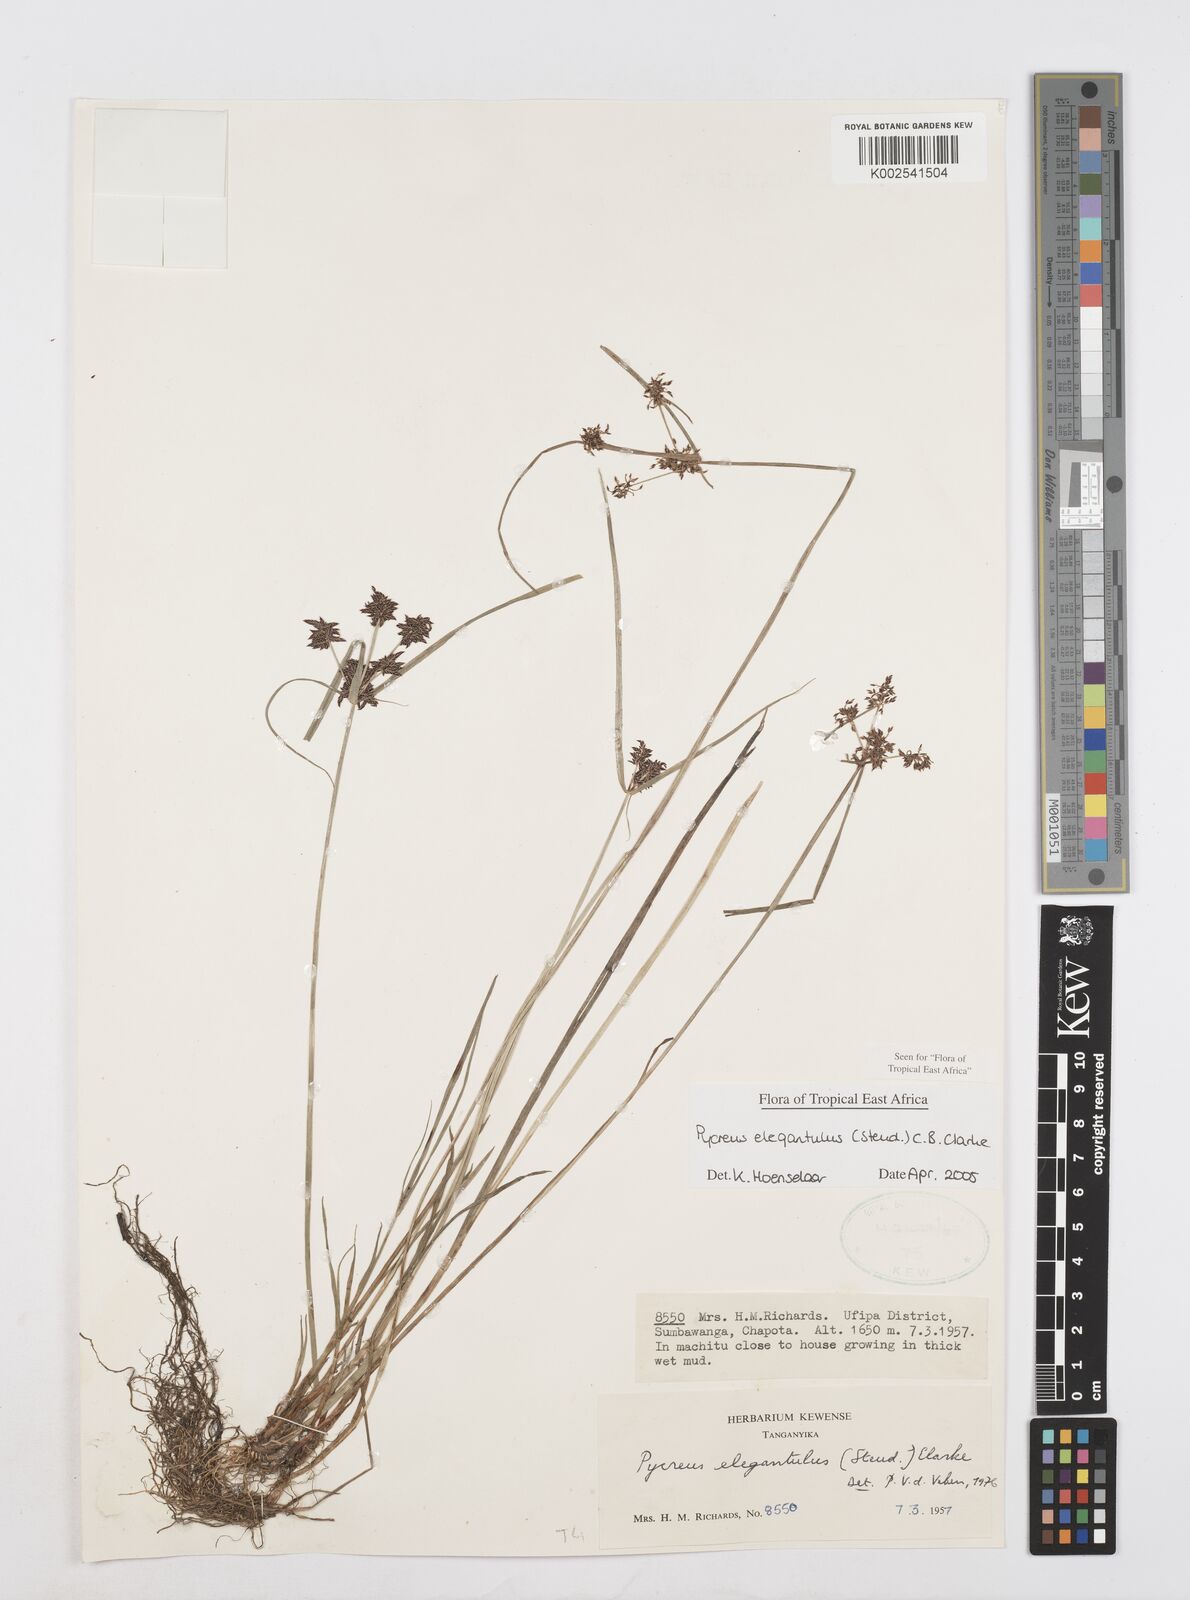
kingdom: Plantae
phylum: Tracheophyta
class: Liliopsida
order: Poales
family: Cyperaceae
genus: Cyperus
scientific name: Cyperus elegantulus
